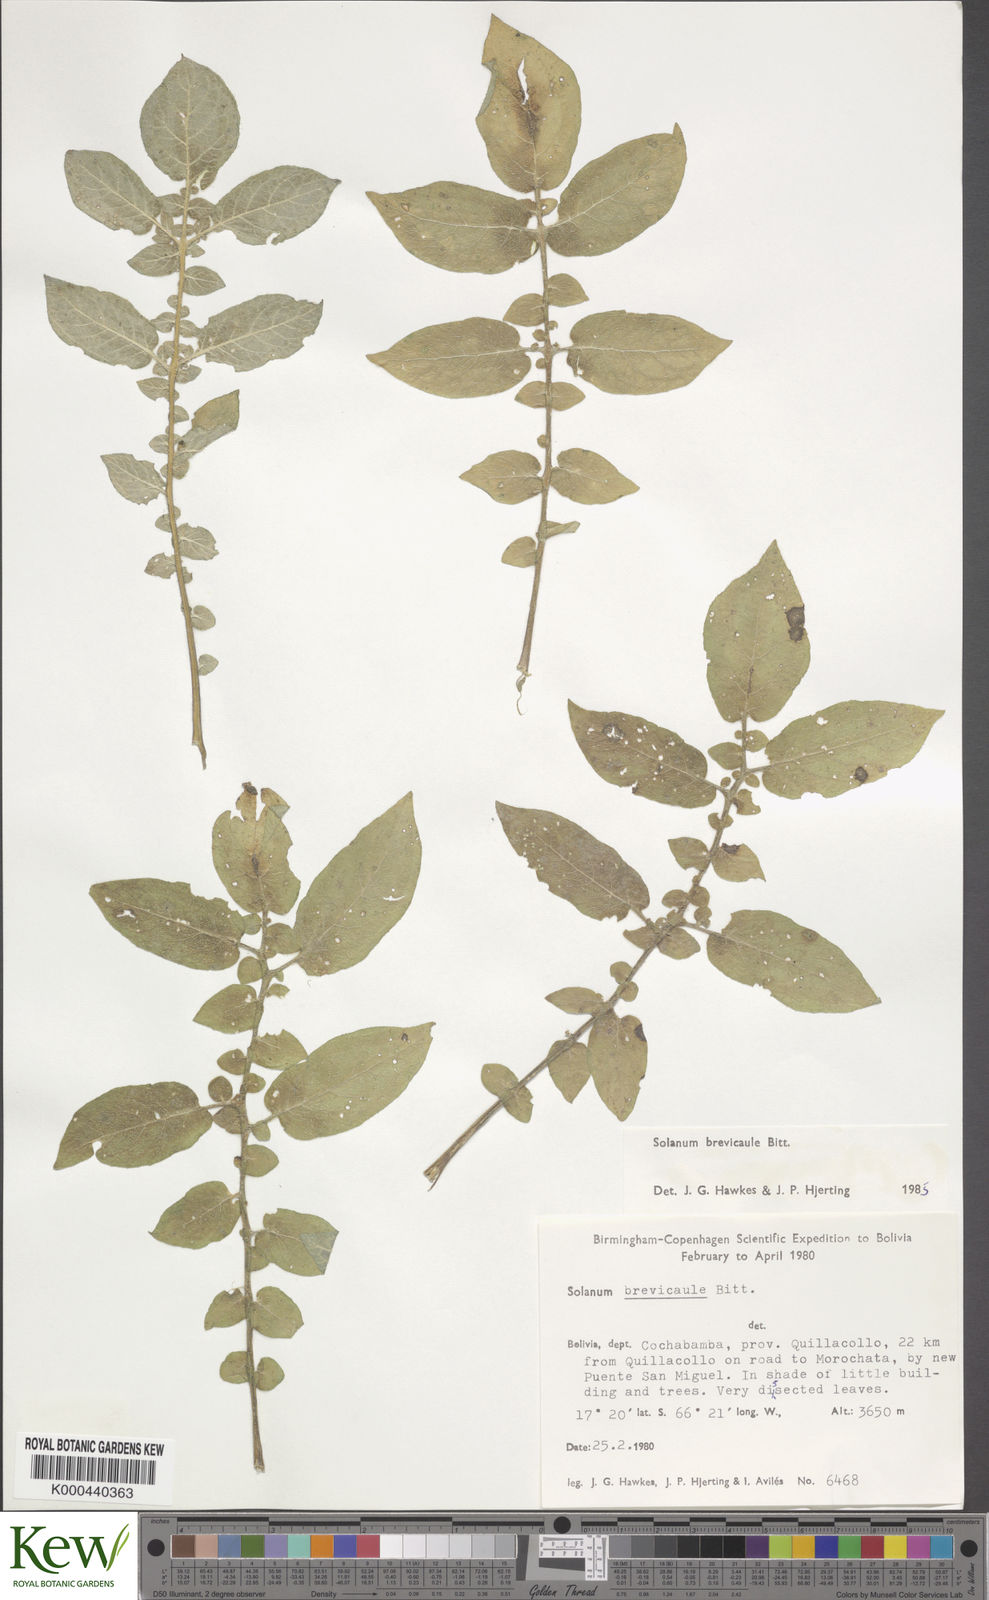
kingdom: Plantae
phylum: Tracheophyta
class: Magnoliopsida
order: Solanales
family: Solanaceae
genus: Solanum
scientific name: Solanum brevicaule
